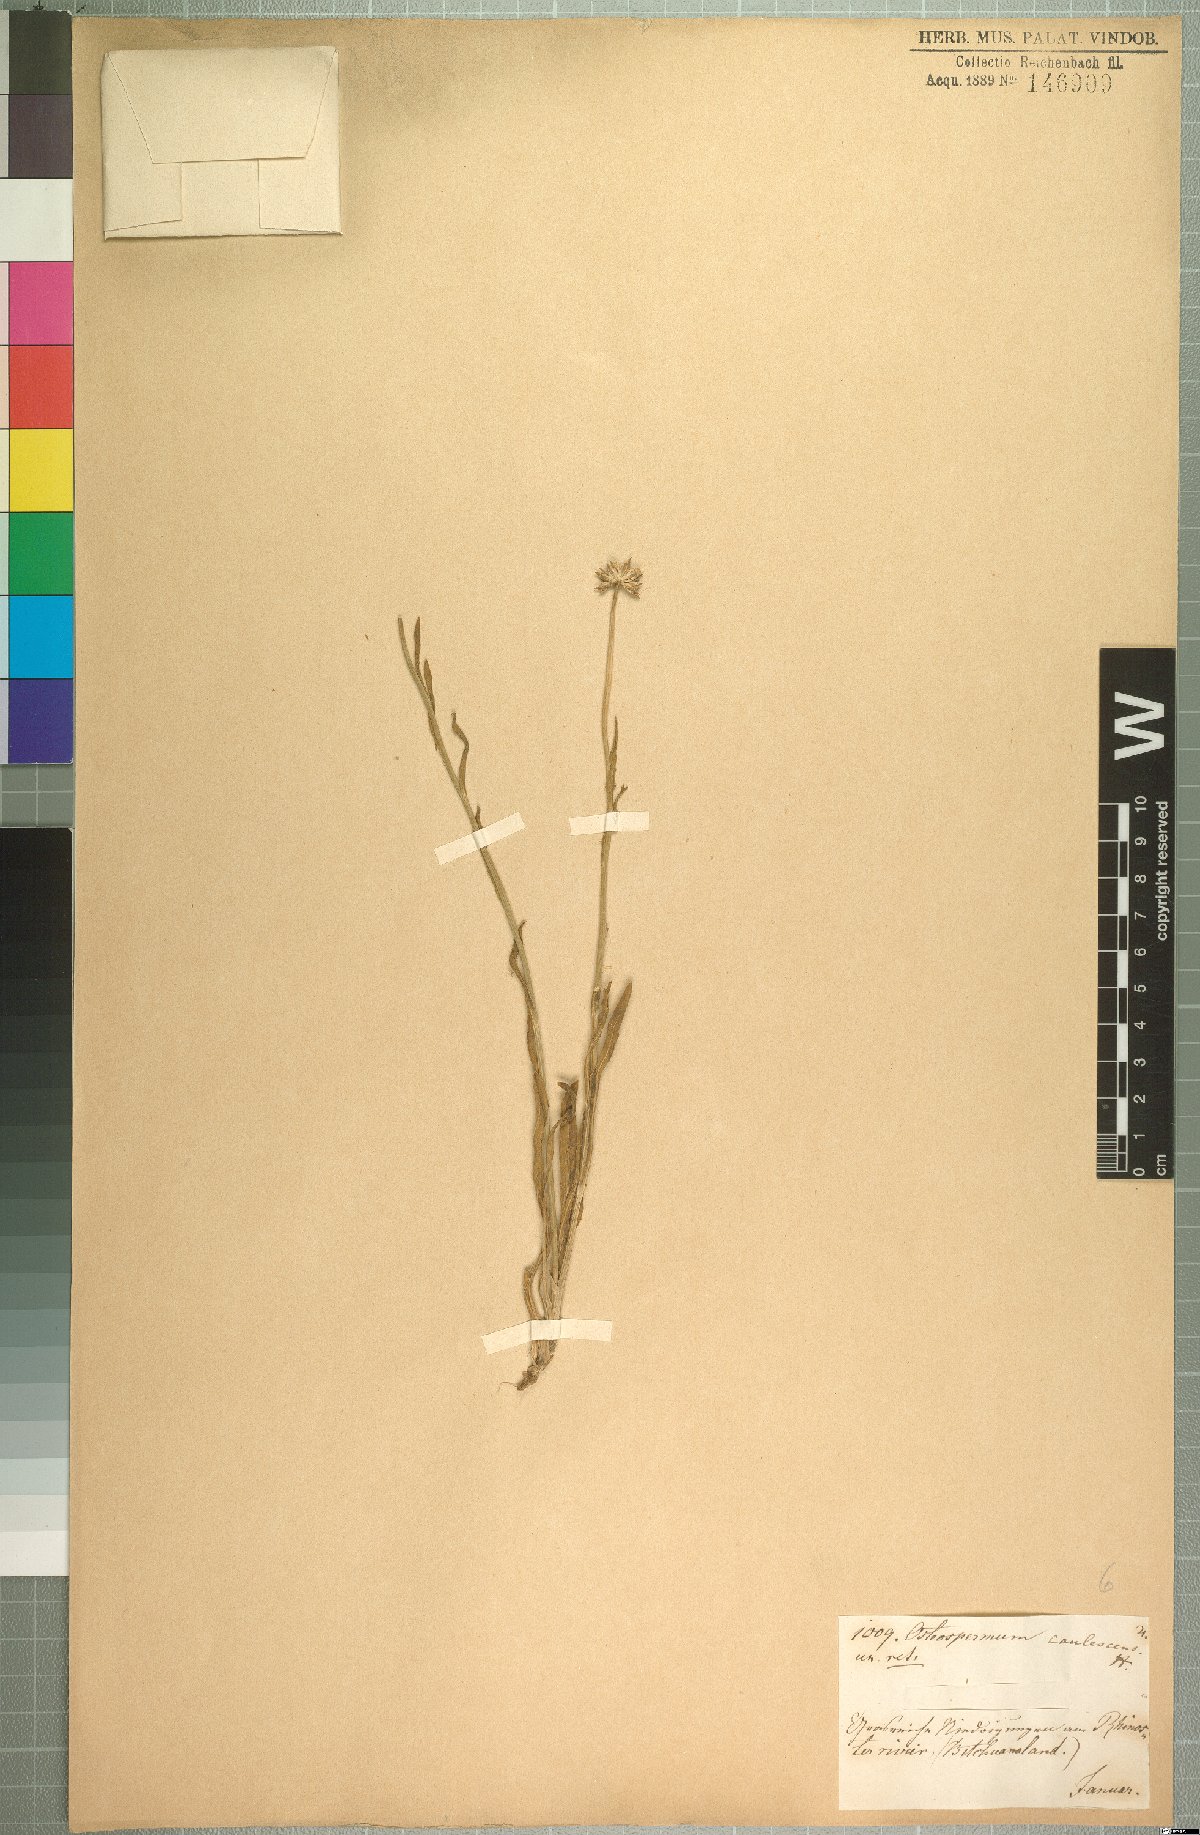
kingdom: Plantae
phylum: Tracheophyta
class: Magnoliopsida
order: Asterales
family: Asteraceae
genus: Dimorphotheca
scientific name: Dimorphotheca caulescens
